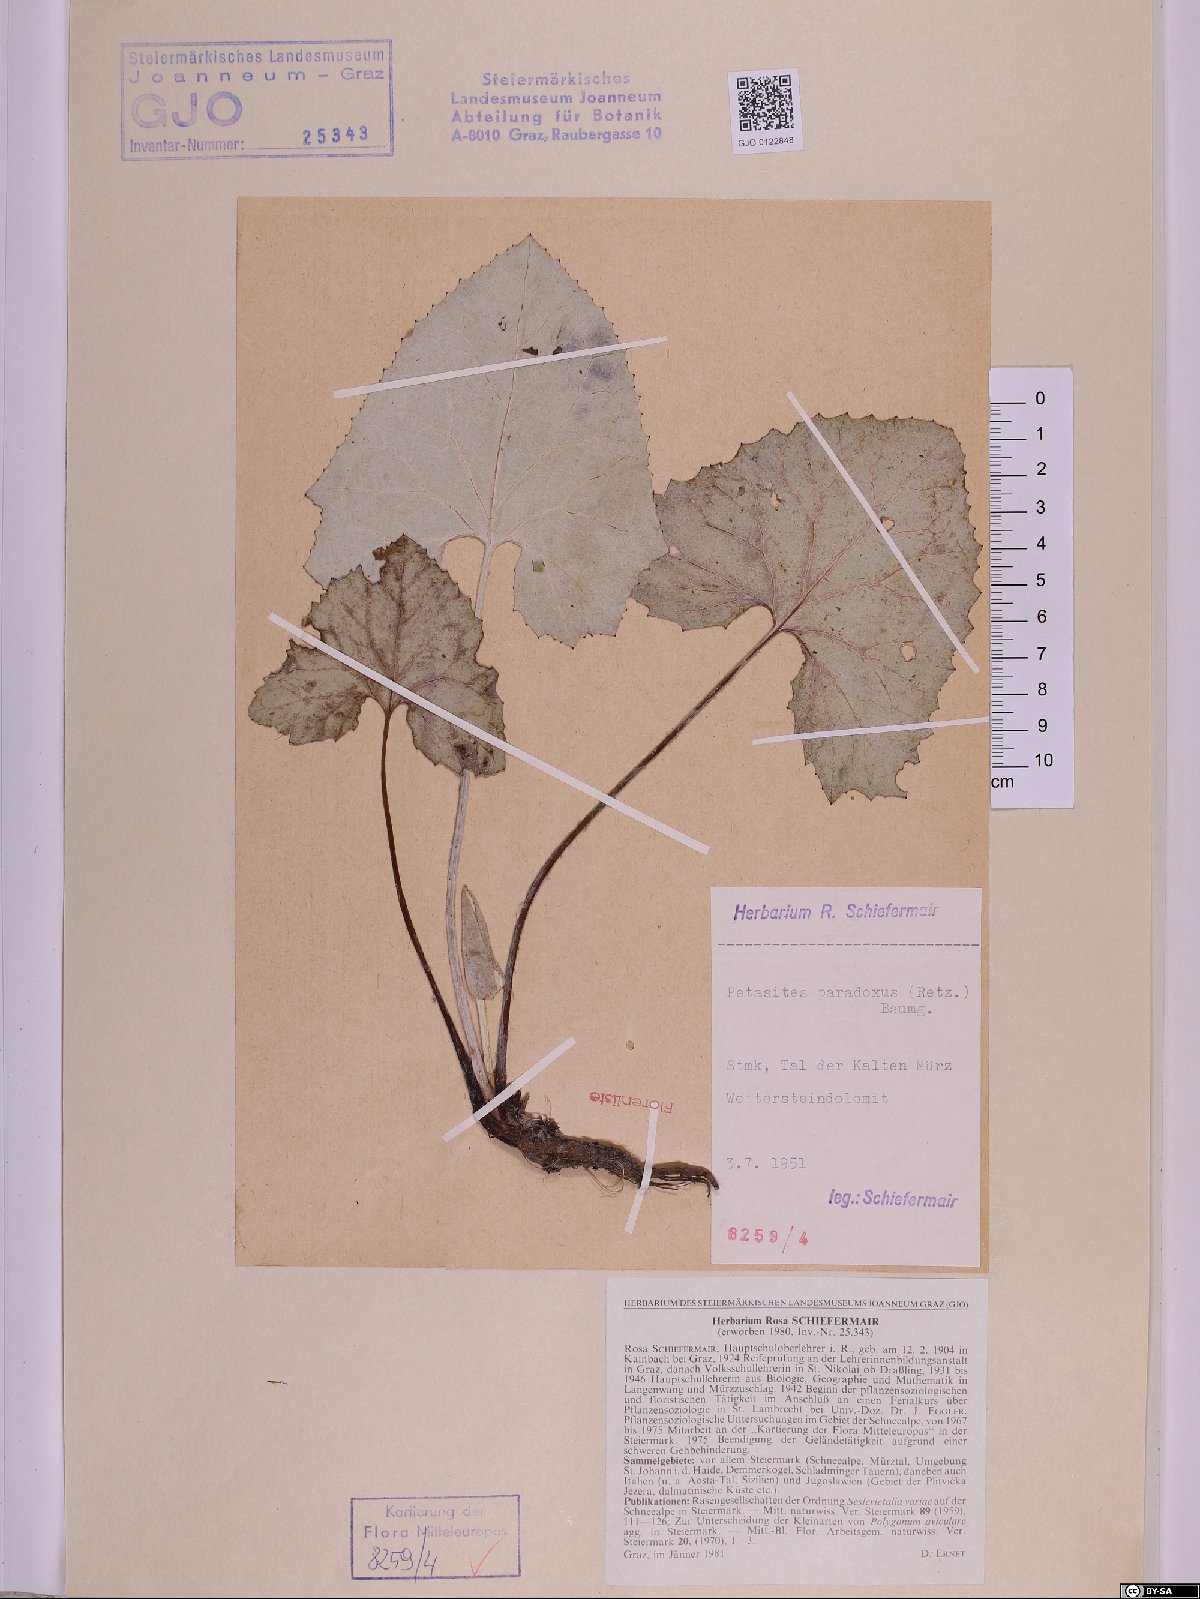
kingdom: Plantae
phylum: Tracheophyta
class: Magnoliopsida
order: Asterales
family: Asteraceae
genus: Petasites
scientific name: Petasites paradoxus
